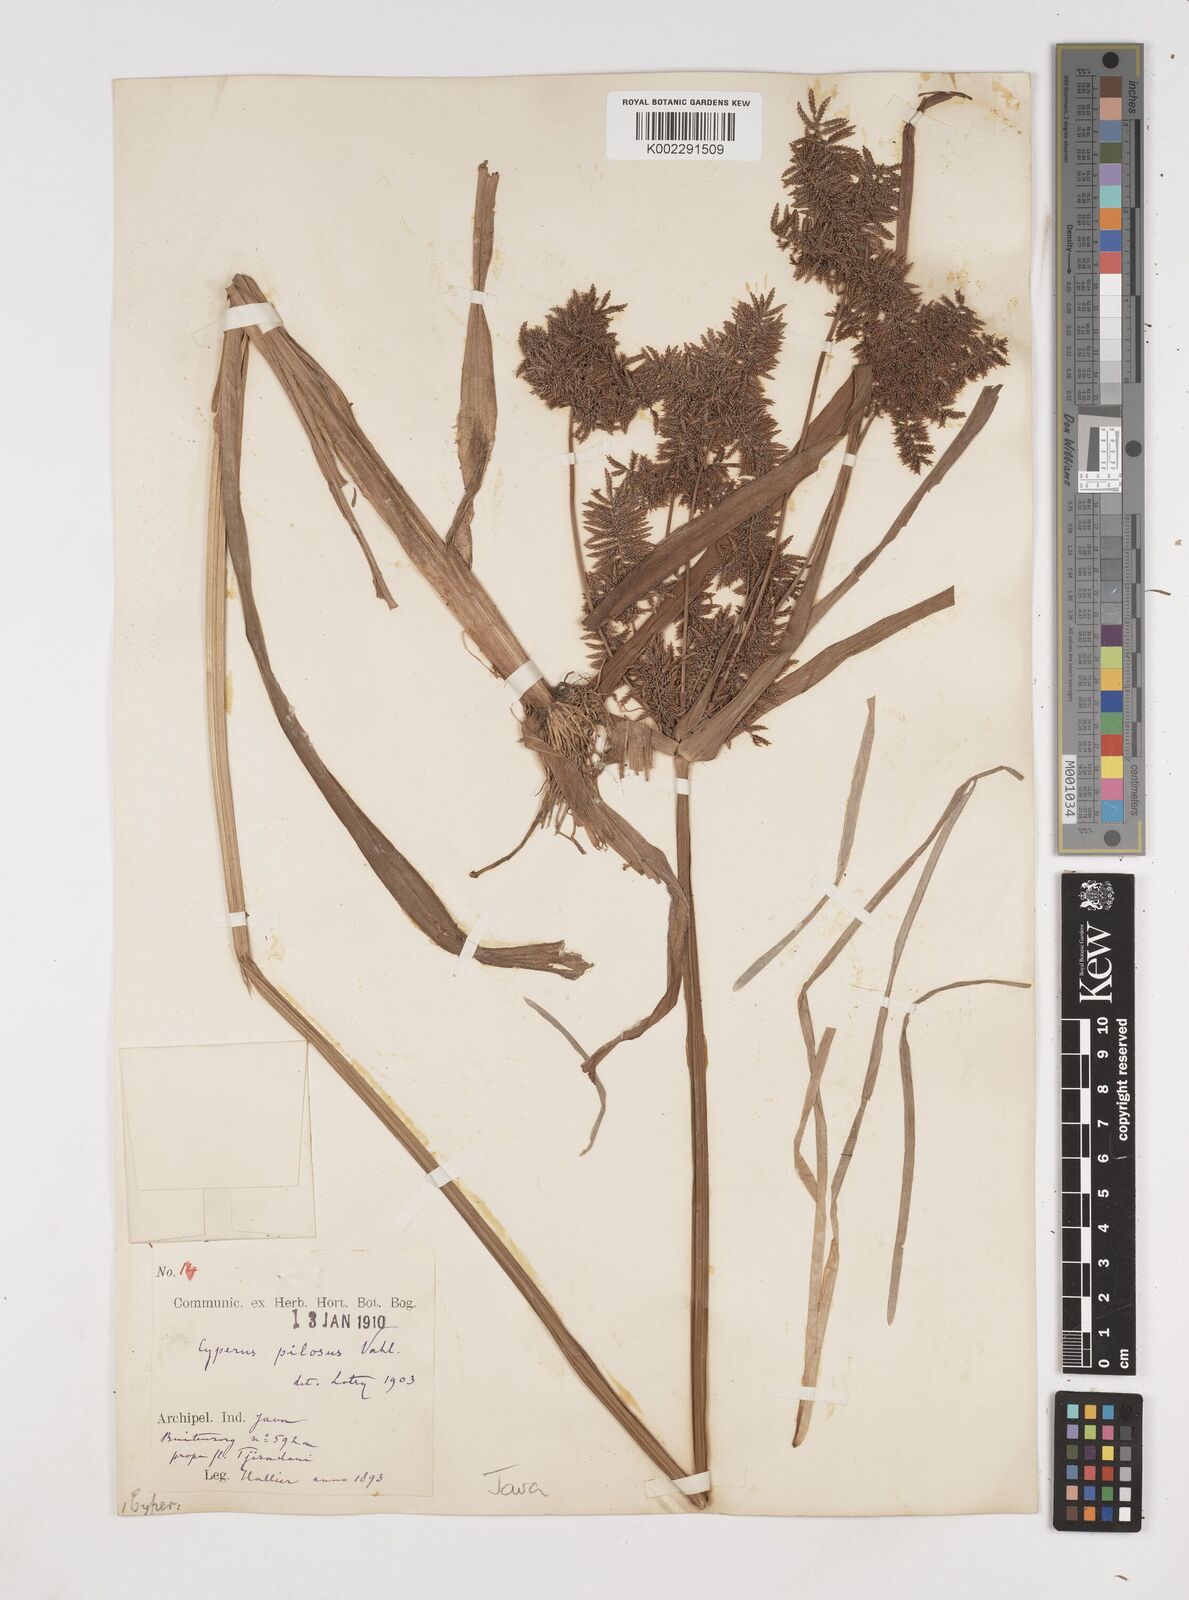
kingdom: Plantae
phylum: Tracheophyta
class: Liliopsida
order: Poales
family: Cyperaceae
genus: Cyperus
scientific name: Cyperus pilosus
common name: Fuzzy flatsedge
